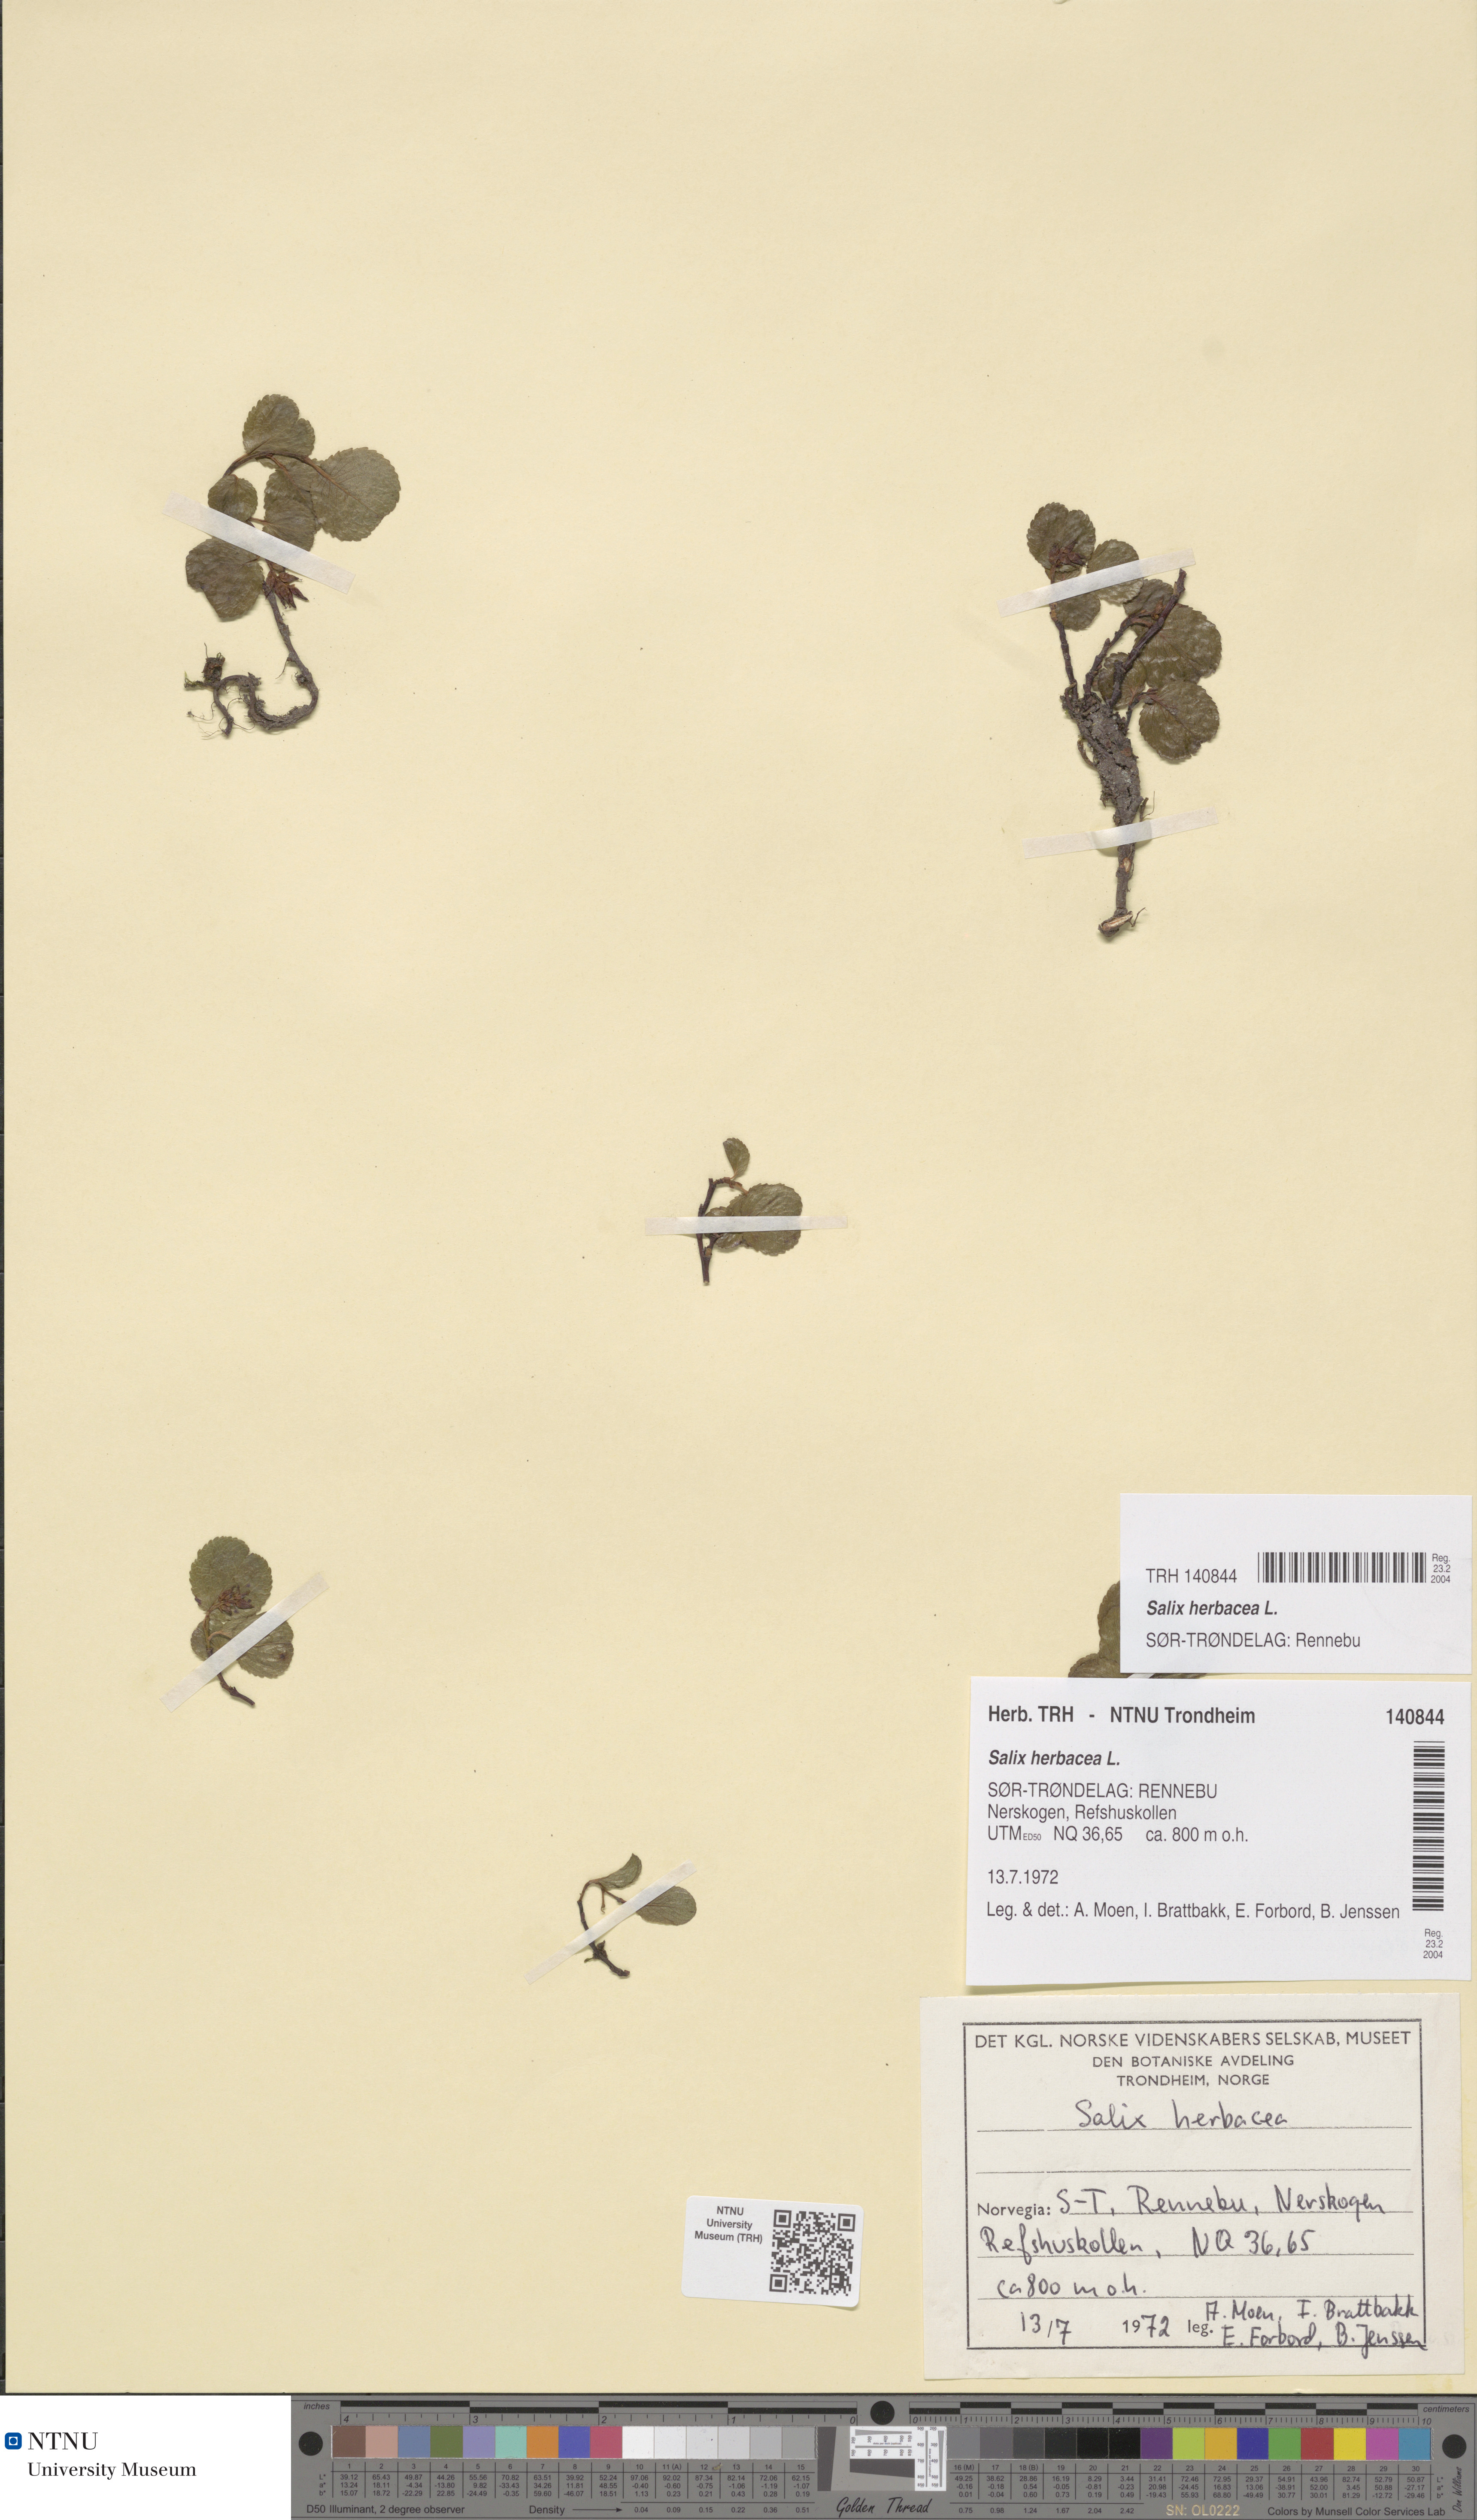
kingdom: Plantae
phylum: Tracheophyta
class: Magnoliopsida
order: Malpighiales
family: Salicaceae
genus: Salix
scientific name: Salix herbacea
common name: Dwarf willow
